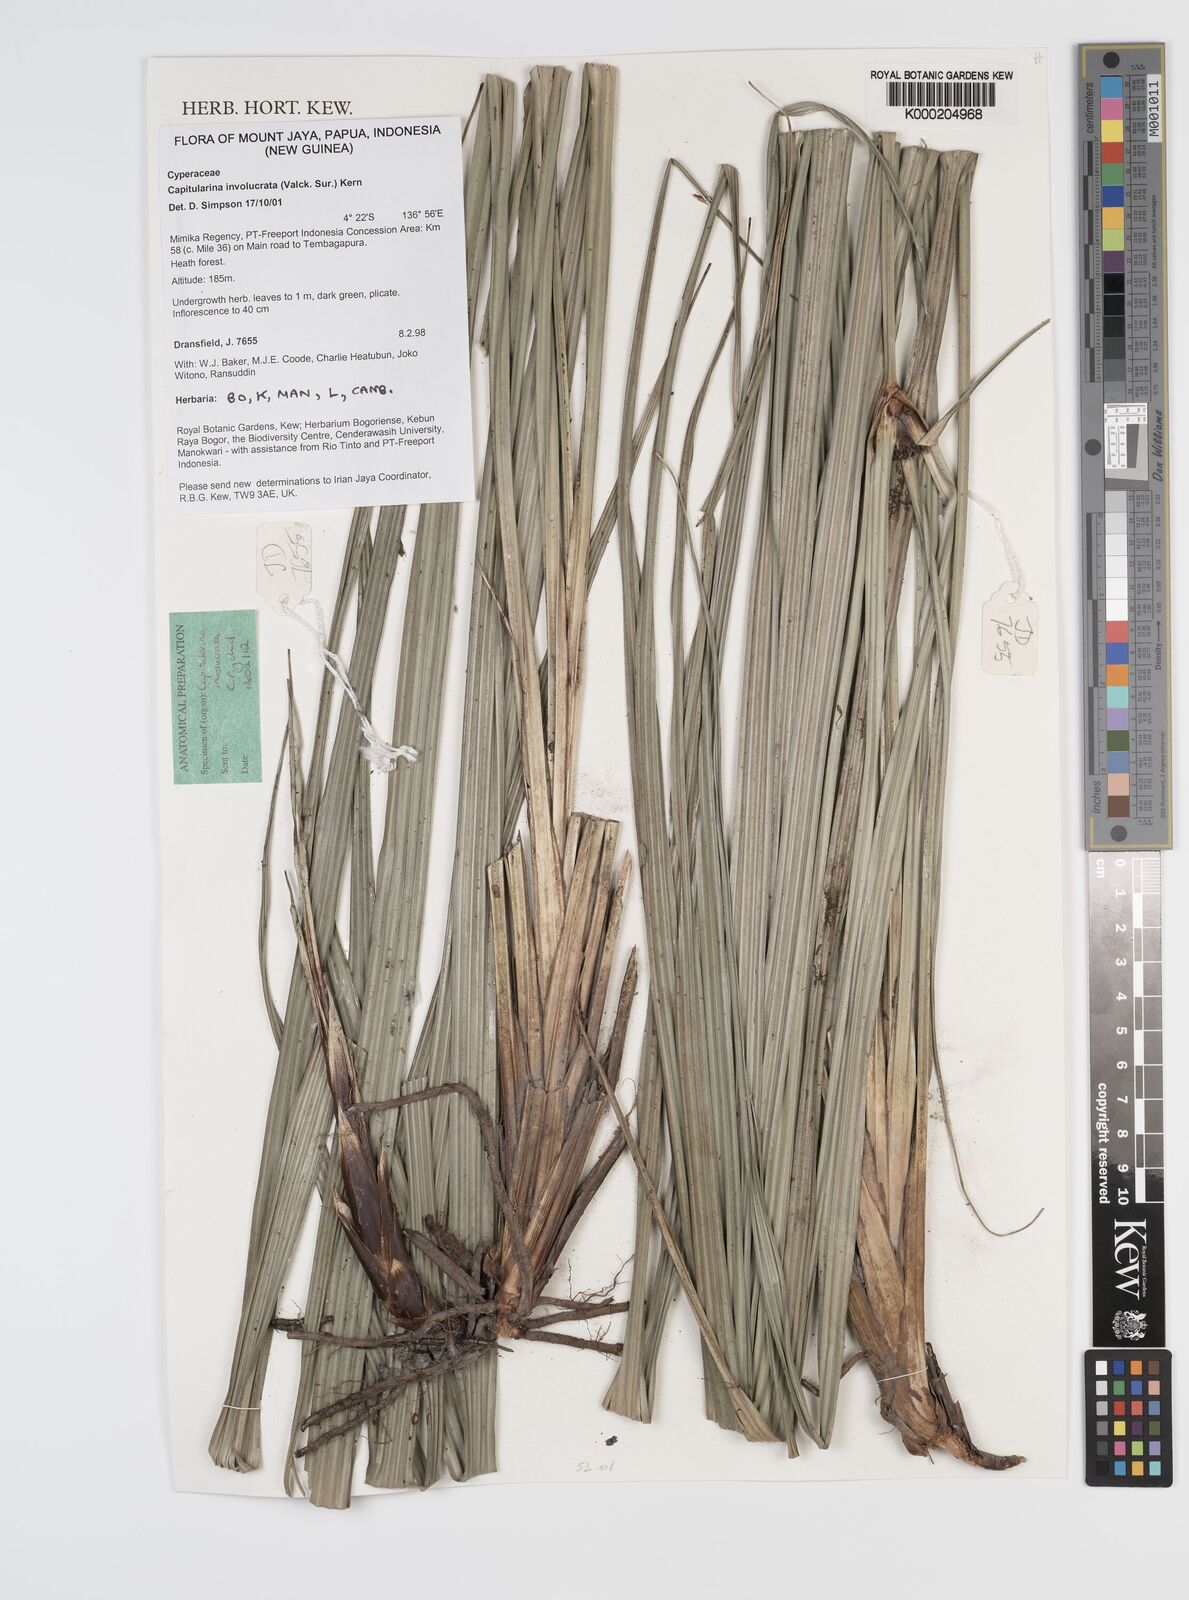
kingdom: Plantae
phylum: Tracheophyta
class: Liliopsida
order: Poales
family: Cyperaceae
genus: Capitularina
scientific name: Capitularina involucrata
